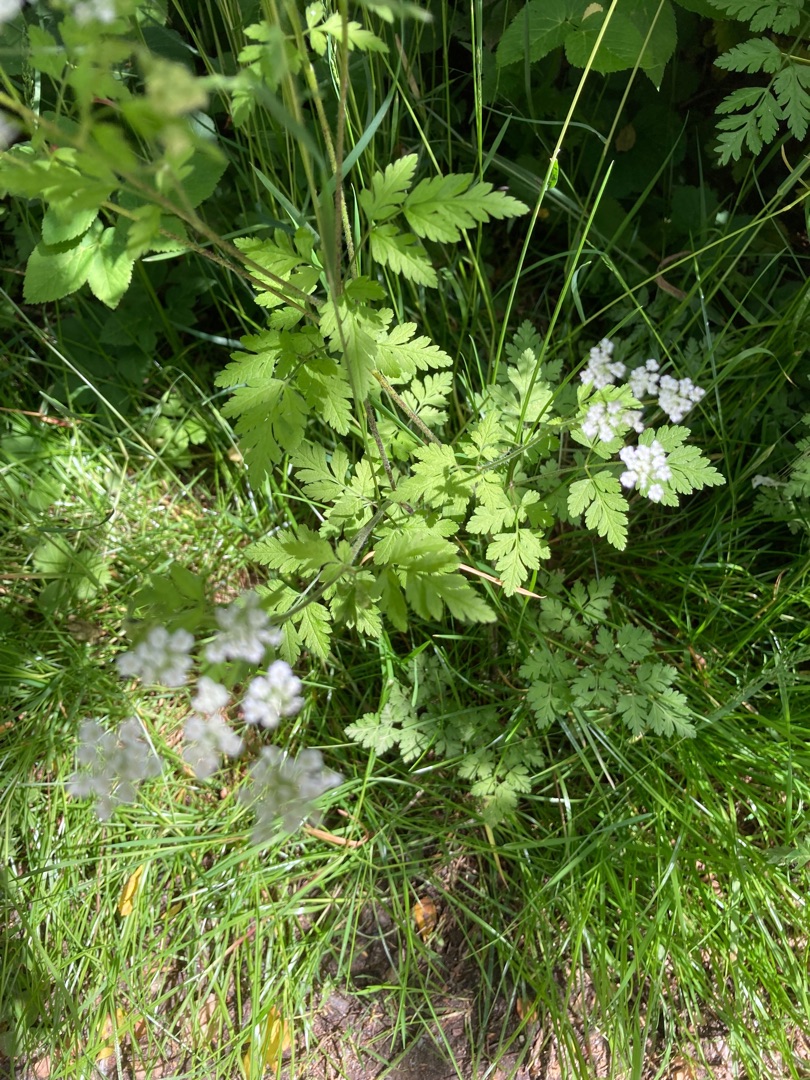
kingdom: Plantae
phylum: Tracheophyta
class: Magnoliopsida
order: Apiales
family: Apiaceae
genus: Chaerophyllum
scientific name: Chaerophyllum temulum
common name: Almindelig hulsvøb
